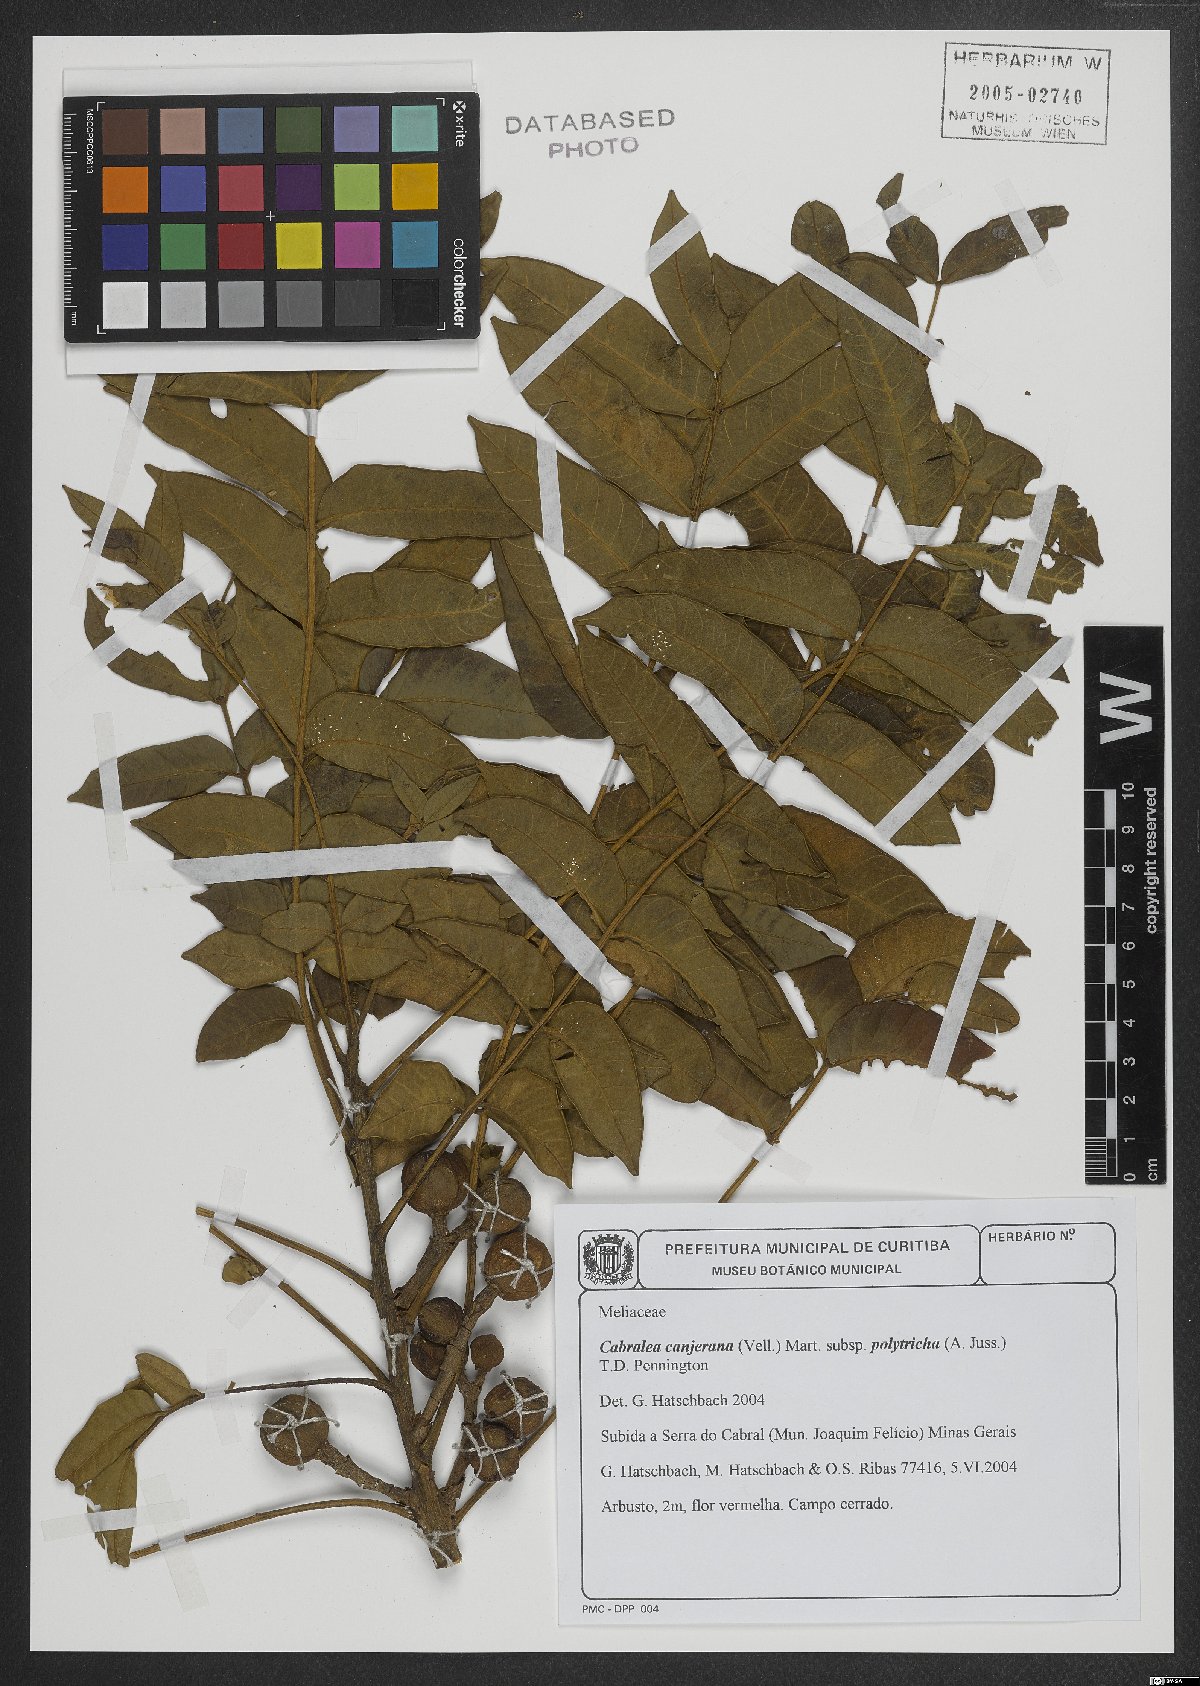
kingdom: Plantae
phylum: Tracheophyta
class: Magnoliopsida
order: Sapindales
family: Meliaceae
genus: Cabralea
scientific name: Cabralea canjerana
